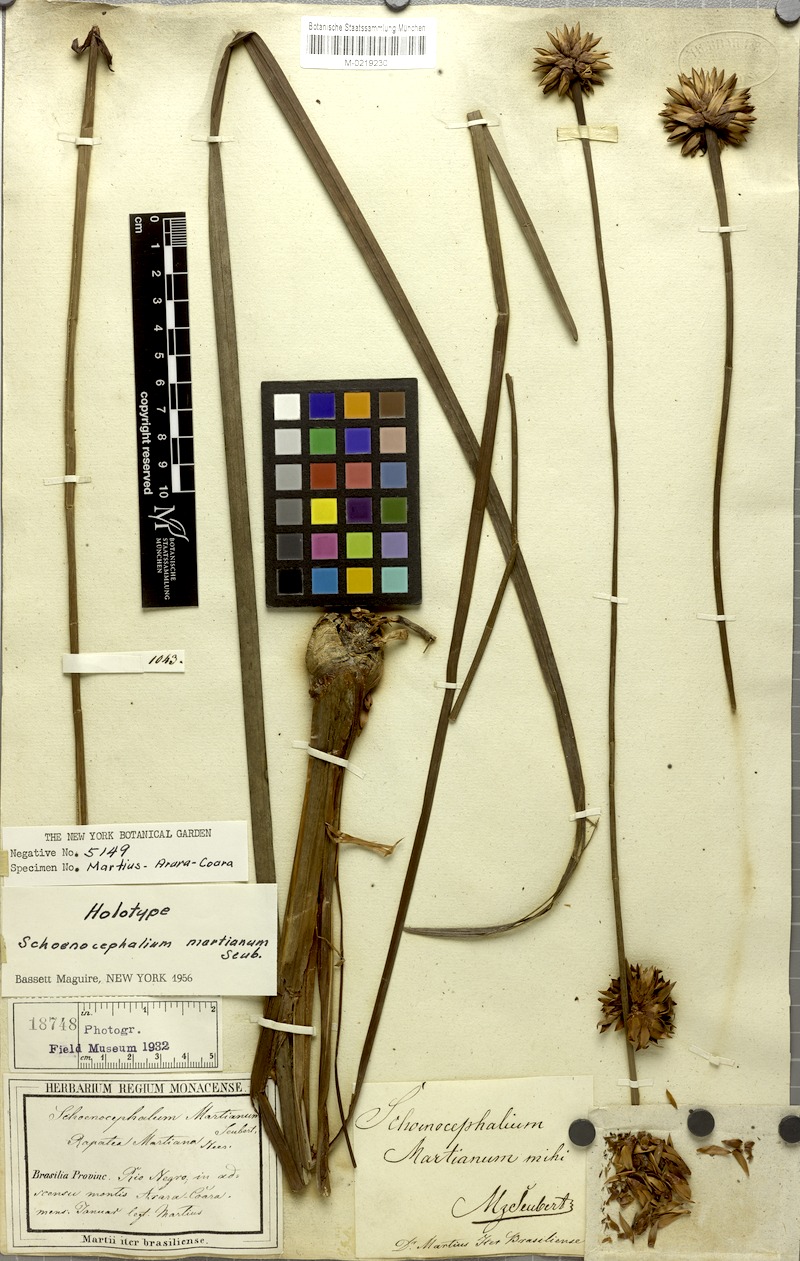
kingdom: Plantae
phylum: Tracheophyta
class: Liliopsida
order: Poales
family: Rapateaceae
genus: Schoenocephalium
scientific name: Schoenocephalium martianum
